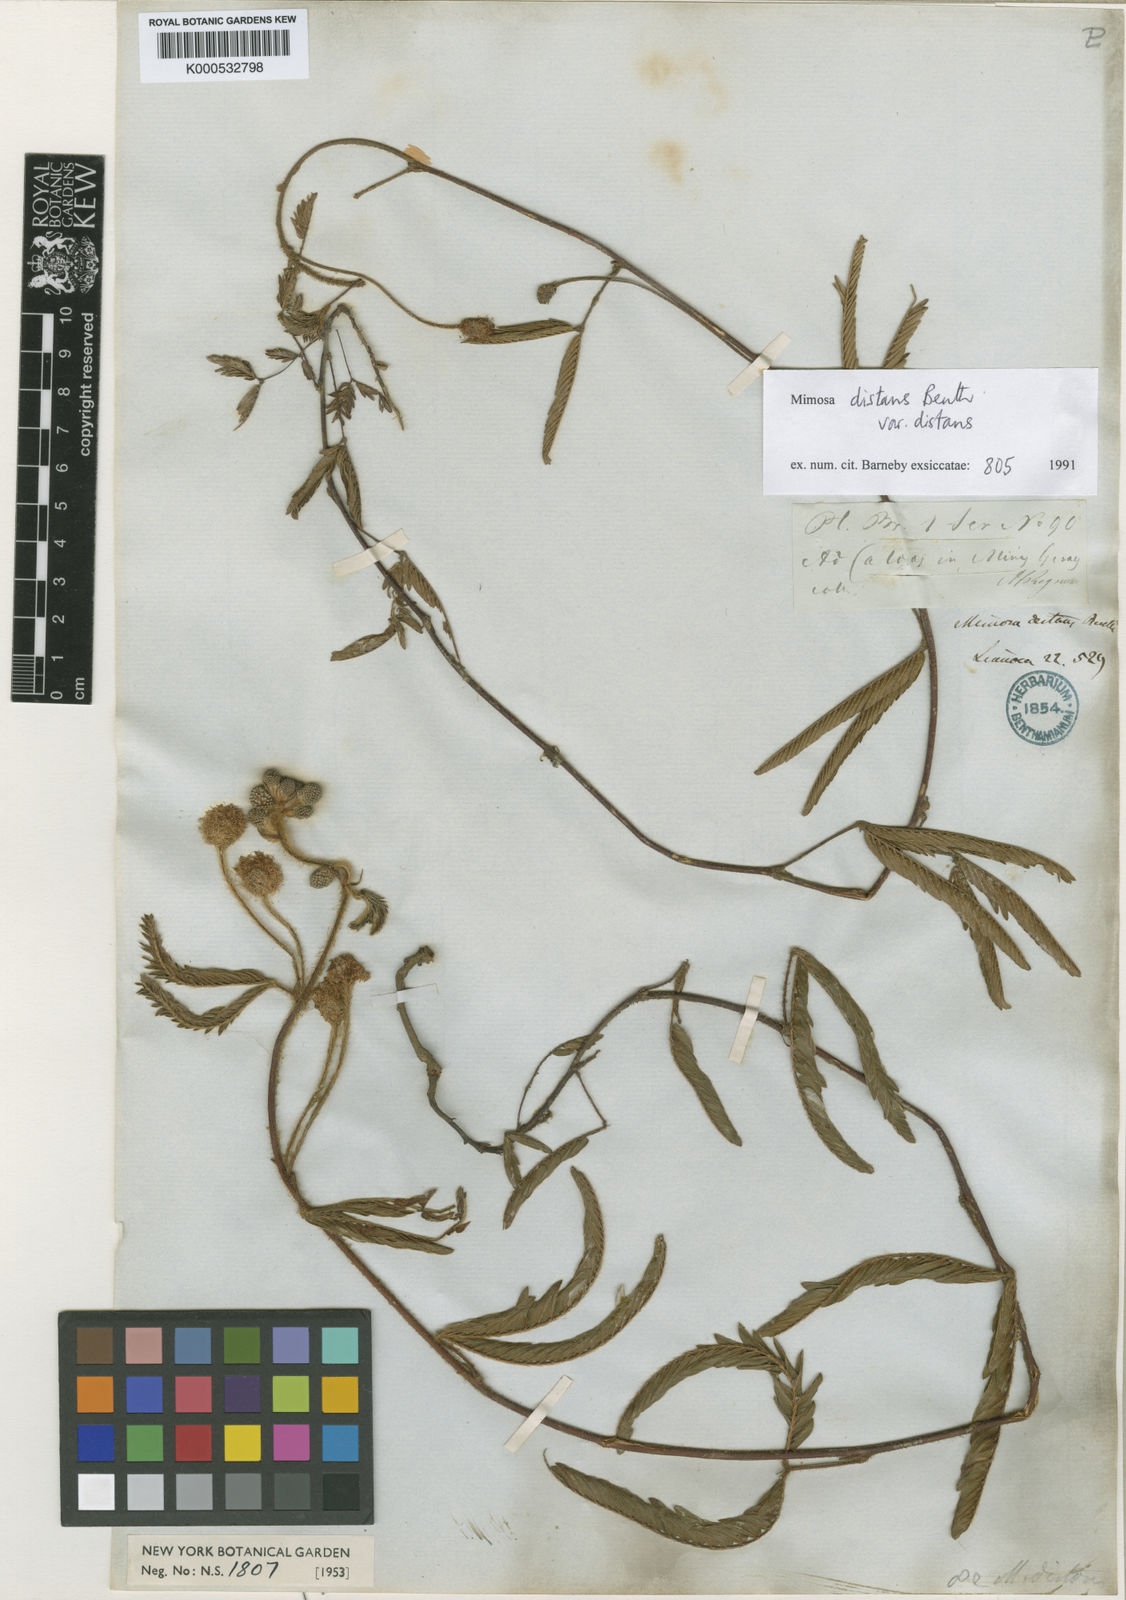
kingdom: Plantae
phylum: Tracheophyta
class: Magnoliopsida
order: Fabales
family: Fabaceae
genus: Mimosa
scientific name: Mimosa distans
